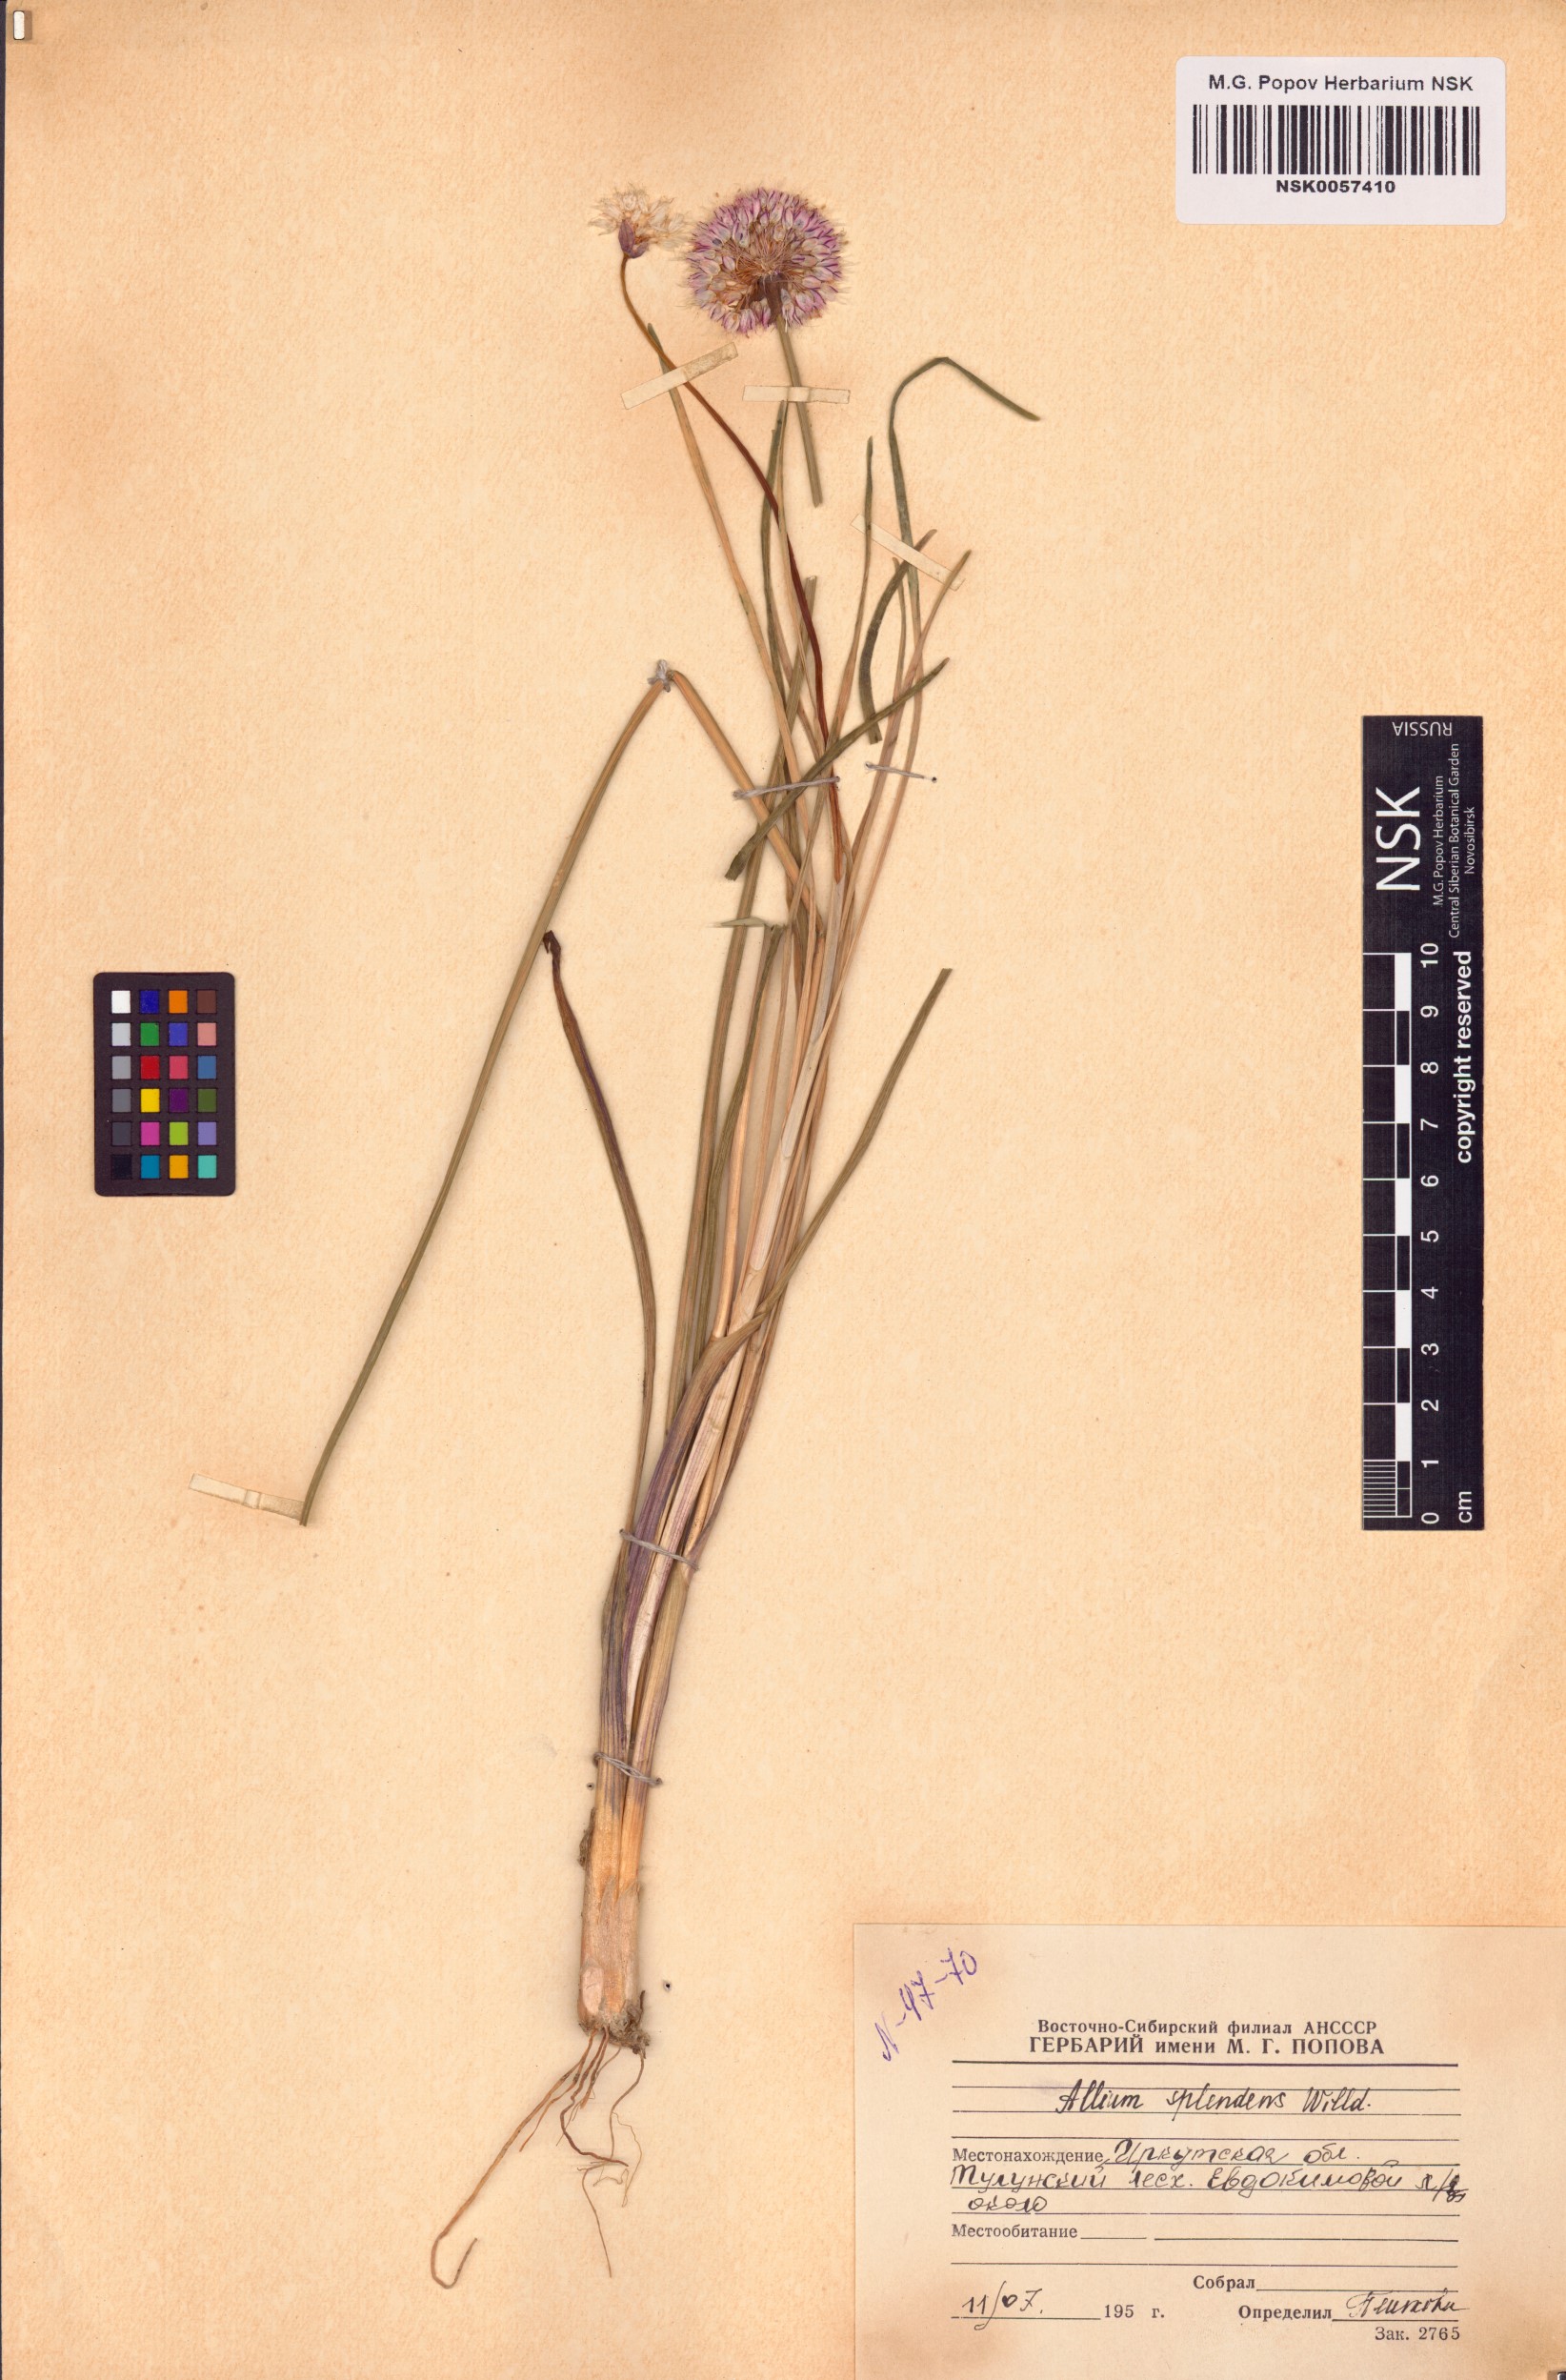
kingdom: Plantae
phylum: Tracheophyta
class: Liliopsida
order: Asparagales
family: Amaryllidaceae
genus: Allium
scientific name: Allium splendens
